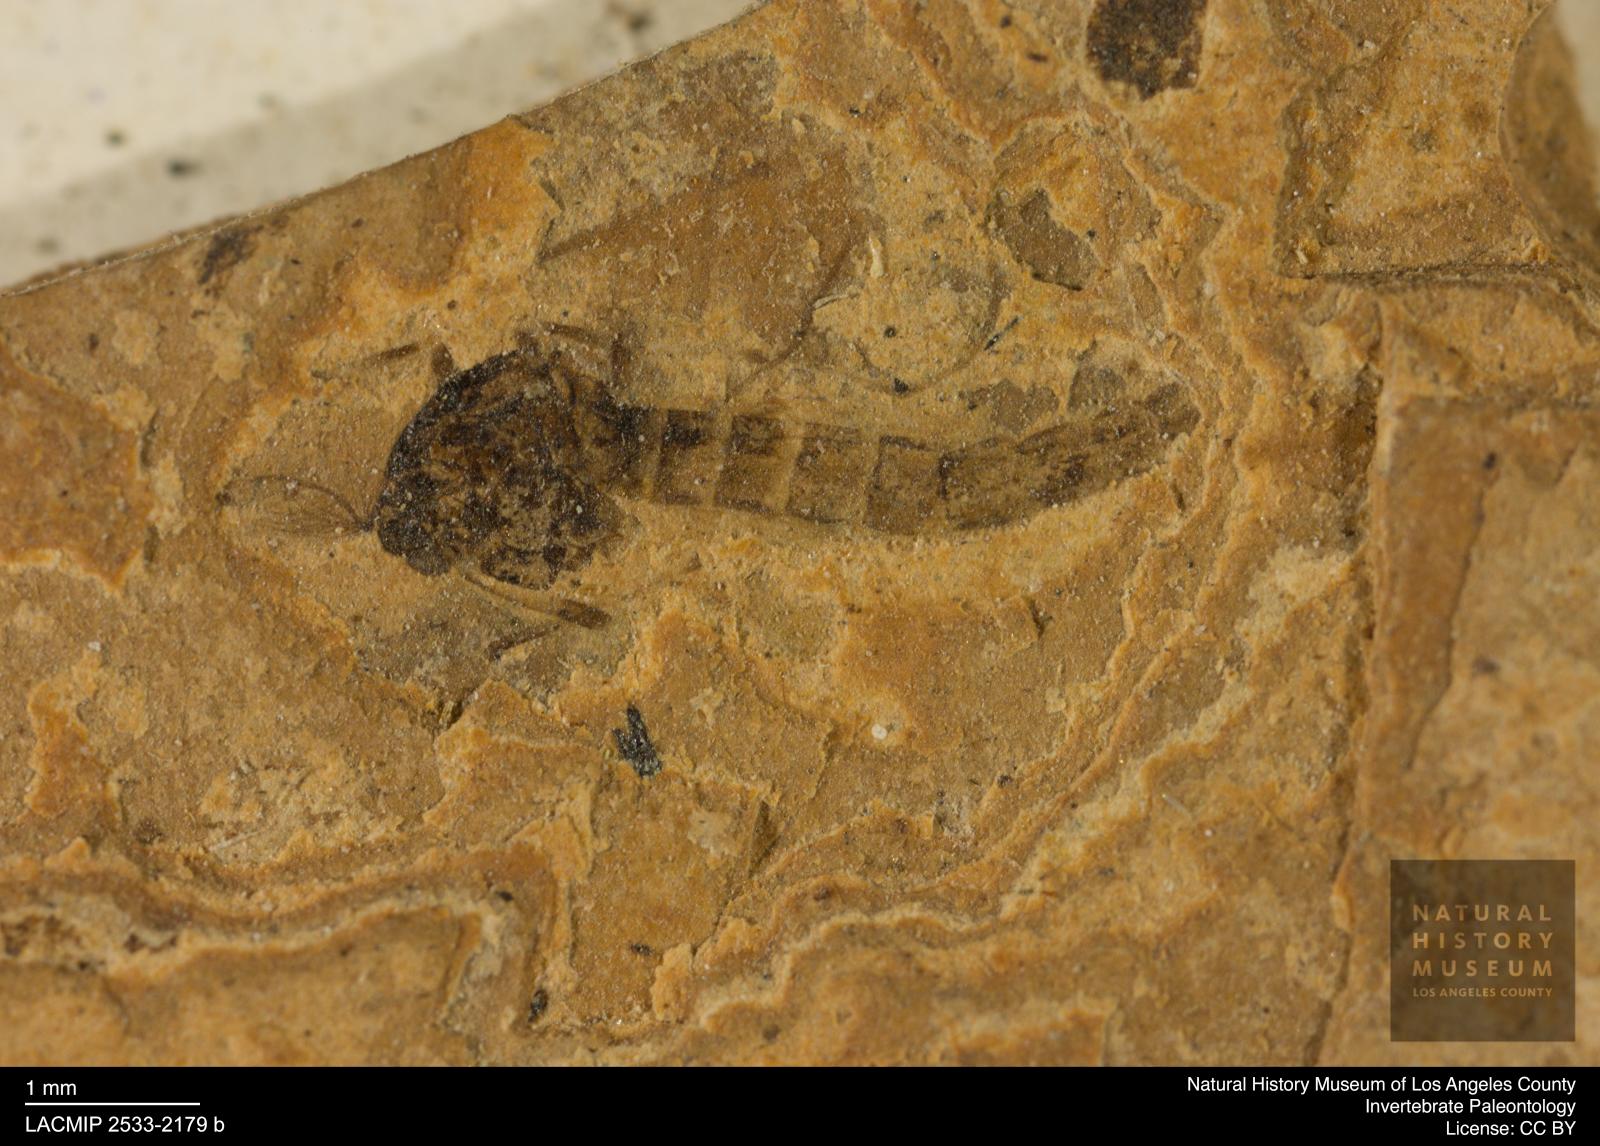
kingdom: Animalia
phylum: Arthropoda
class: Insecta
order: Diptera
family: Chironomidae
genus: Procladius
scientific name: Procladius
